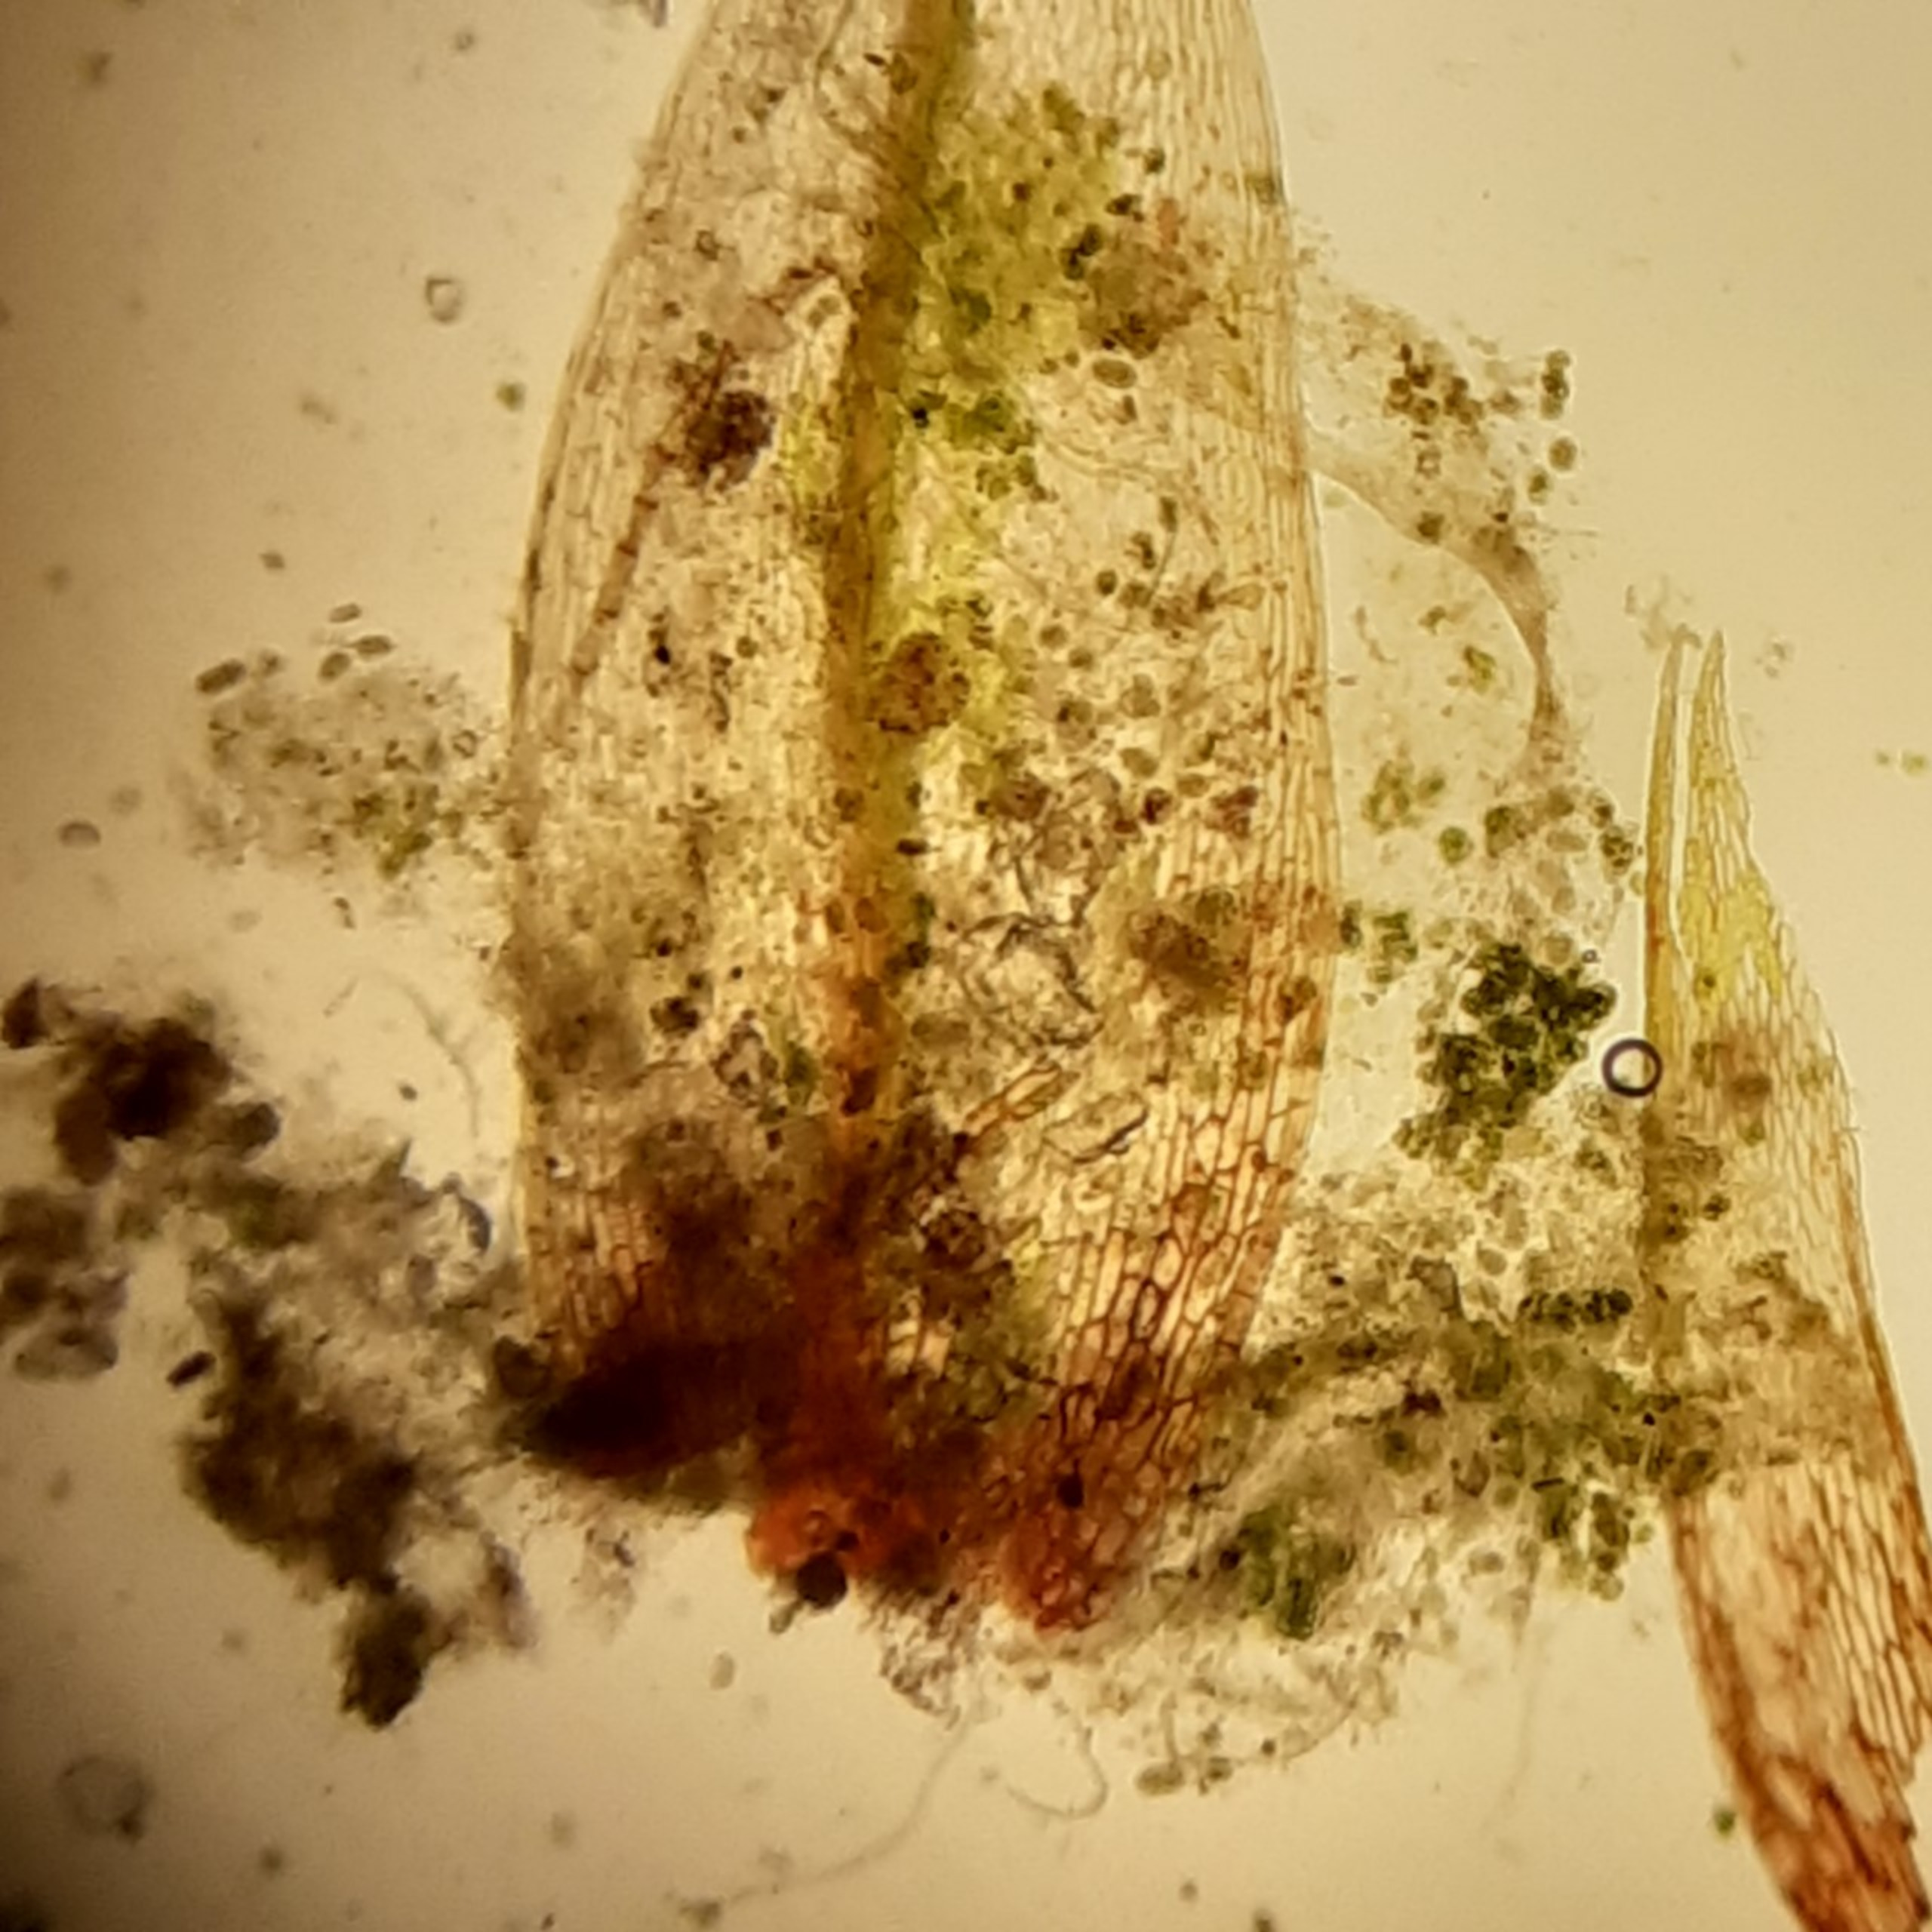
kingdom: Plantae
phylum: Bryophyta
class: Bryopsida
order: Bryales
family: Bryaceae
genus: Bryum
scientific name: Bryum
